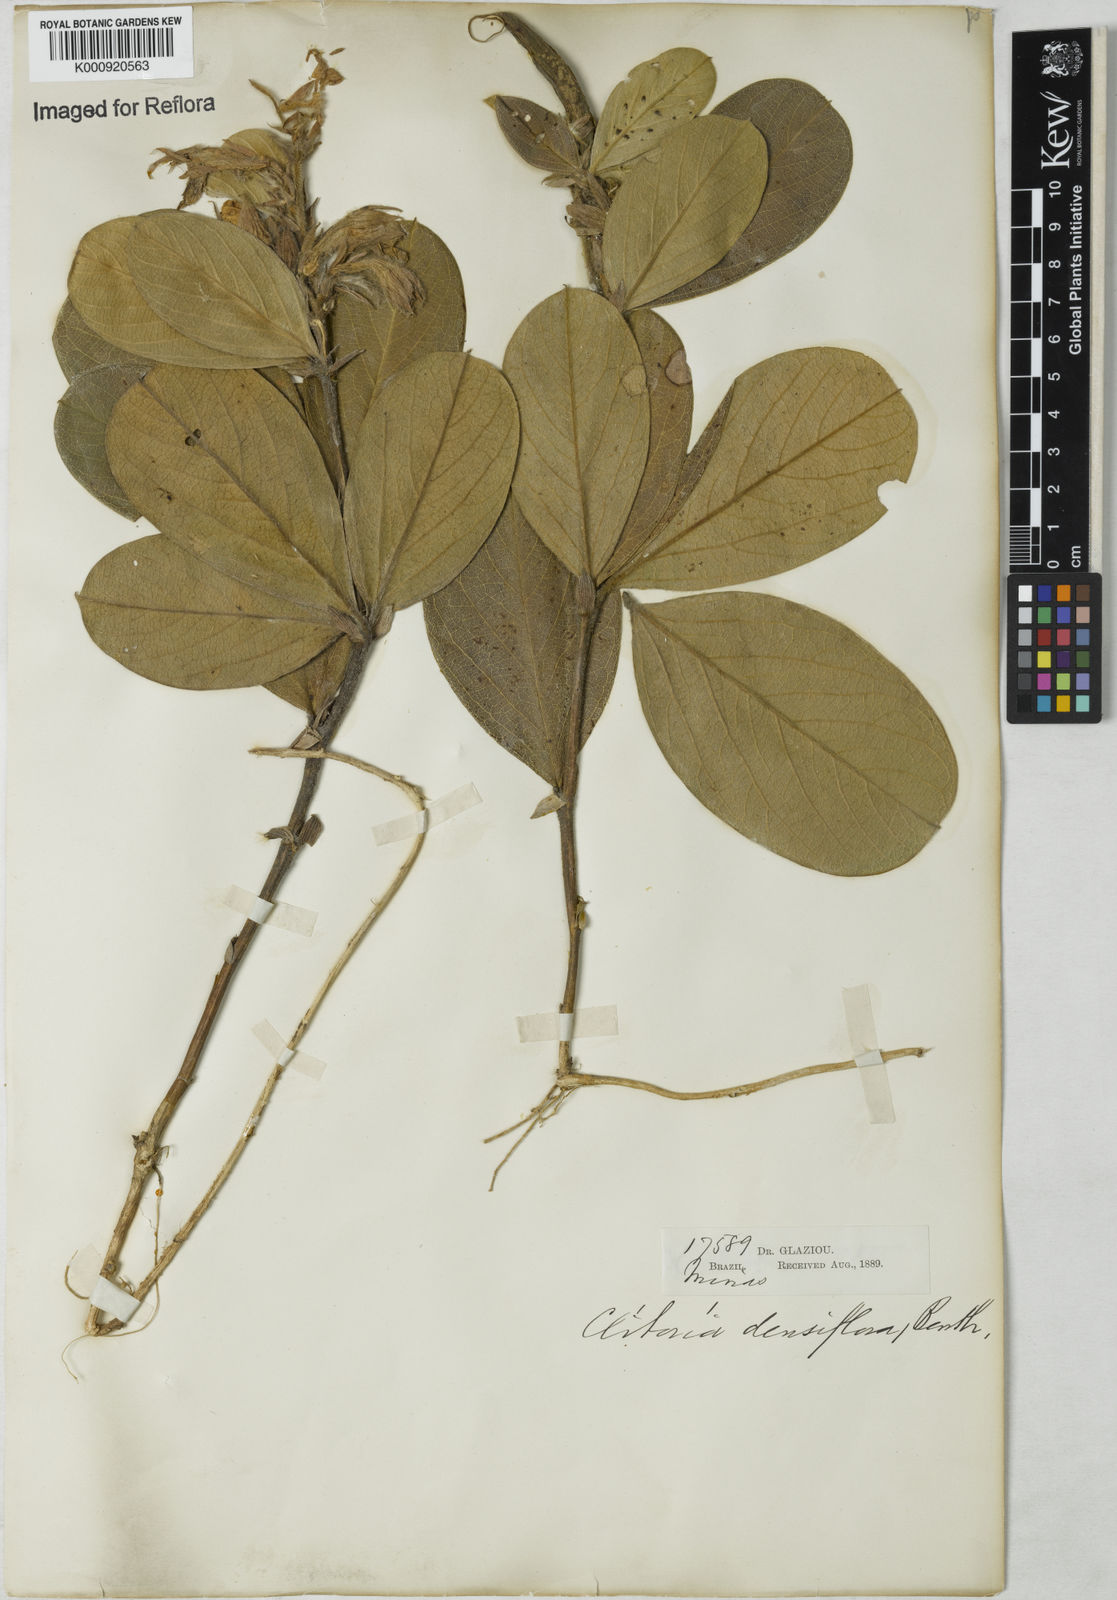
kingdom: Plantae
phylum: Tracheophyta
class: Magnoliopsida
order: Fabales
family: Fabaceae
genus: Clitoria
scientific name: Clitoria
